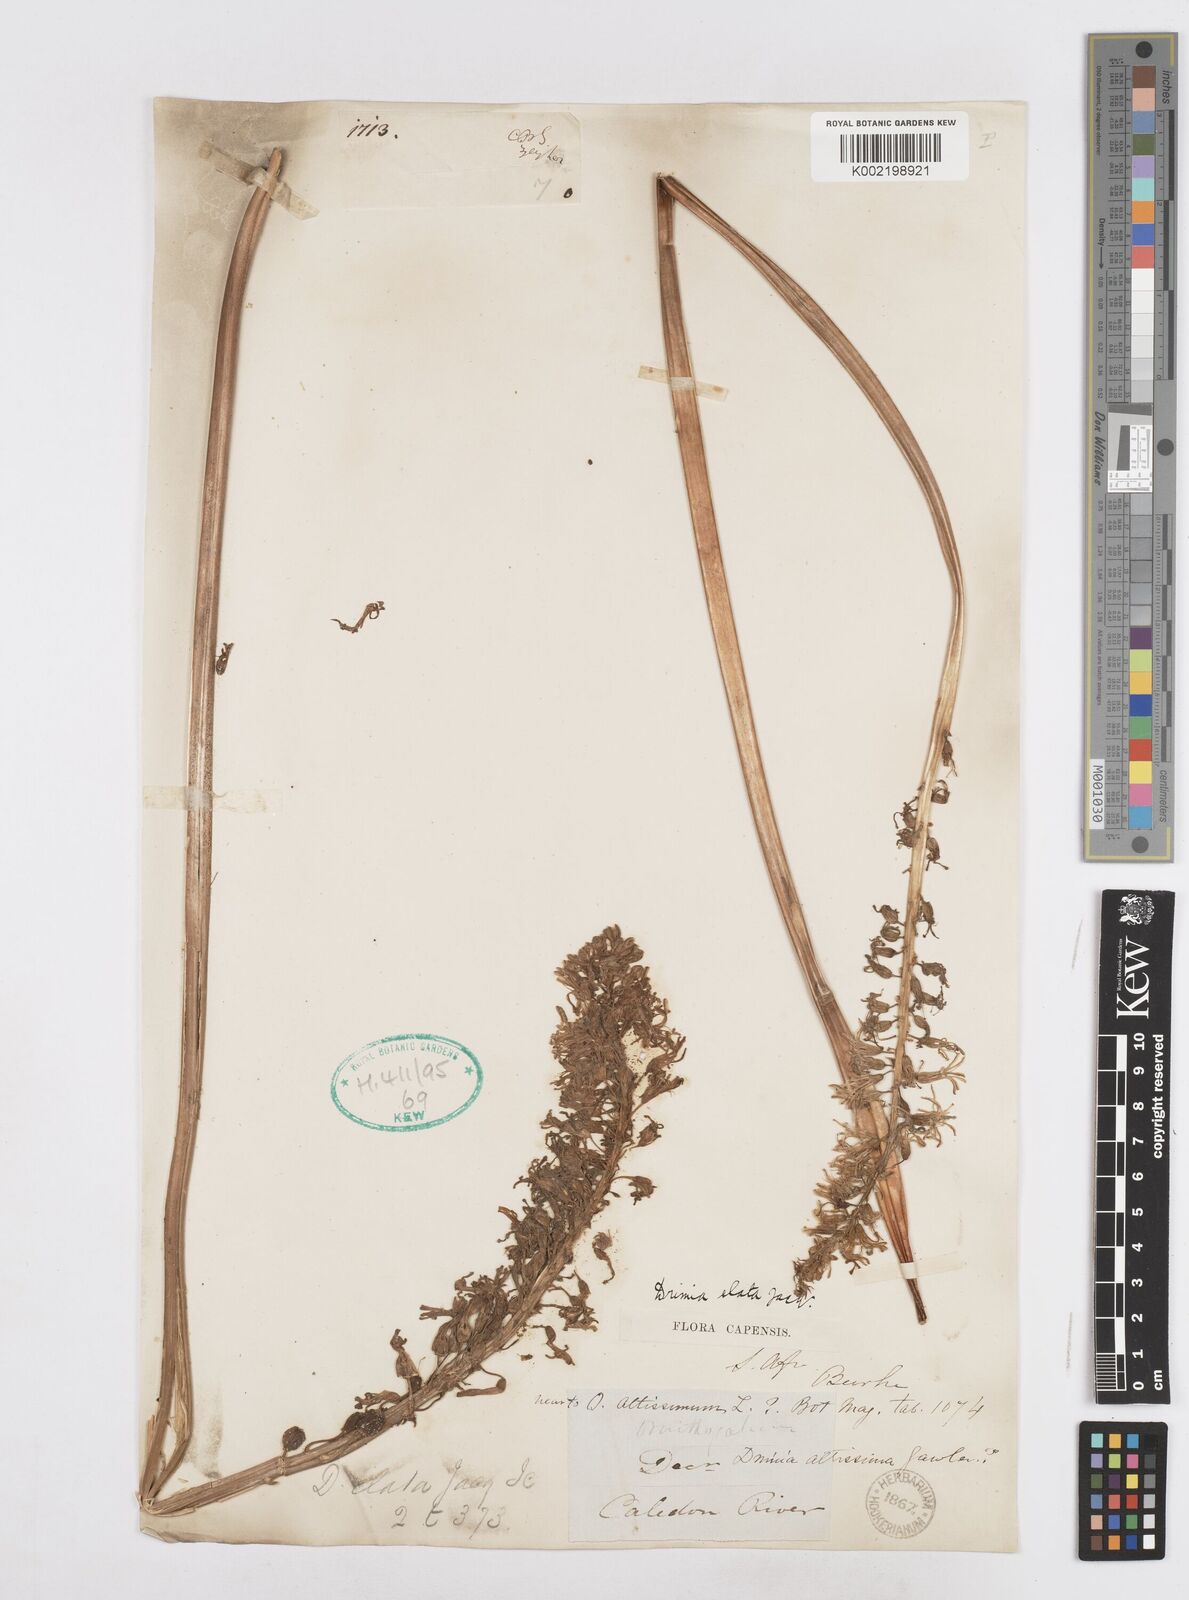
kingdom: Plantae
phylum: Tracheophyta
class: Liliopsida
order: Asparagales
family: Asparagaceae
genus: Drimia
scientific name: Drimia elata
